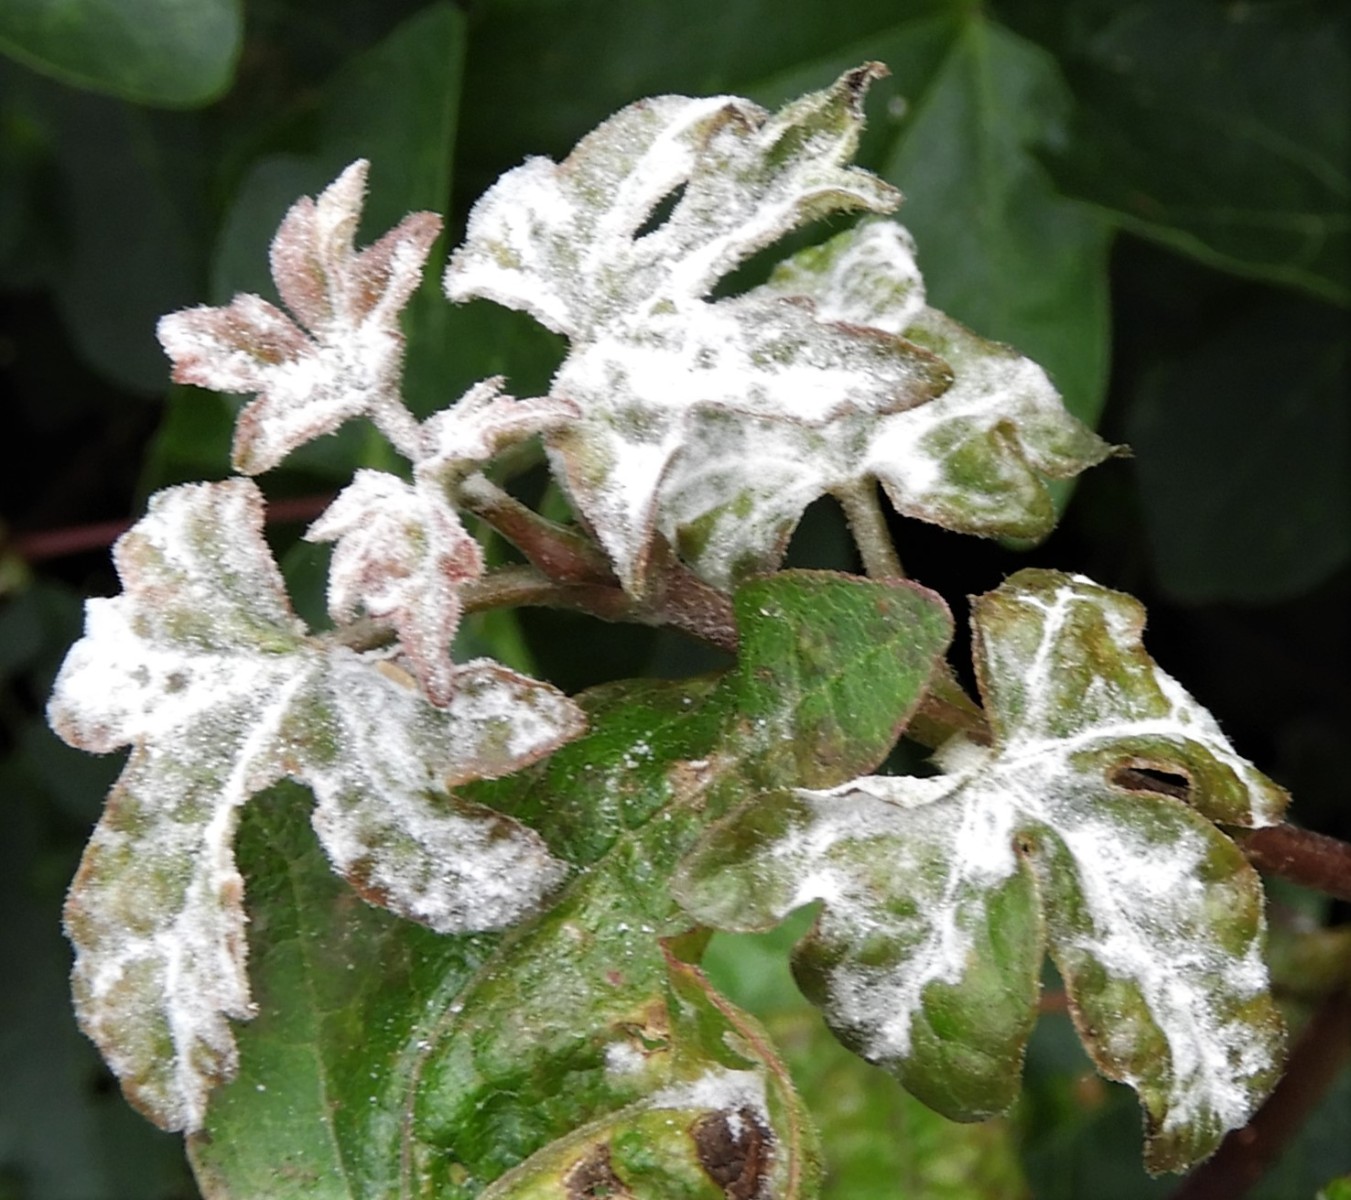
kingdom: Fungi
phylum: Ascomycota
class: Leotiomycetes
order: Helotiales
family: Erysiphaceae
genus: Sawadaea
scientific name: Sawadaea bicornis
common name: Maple mildew
